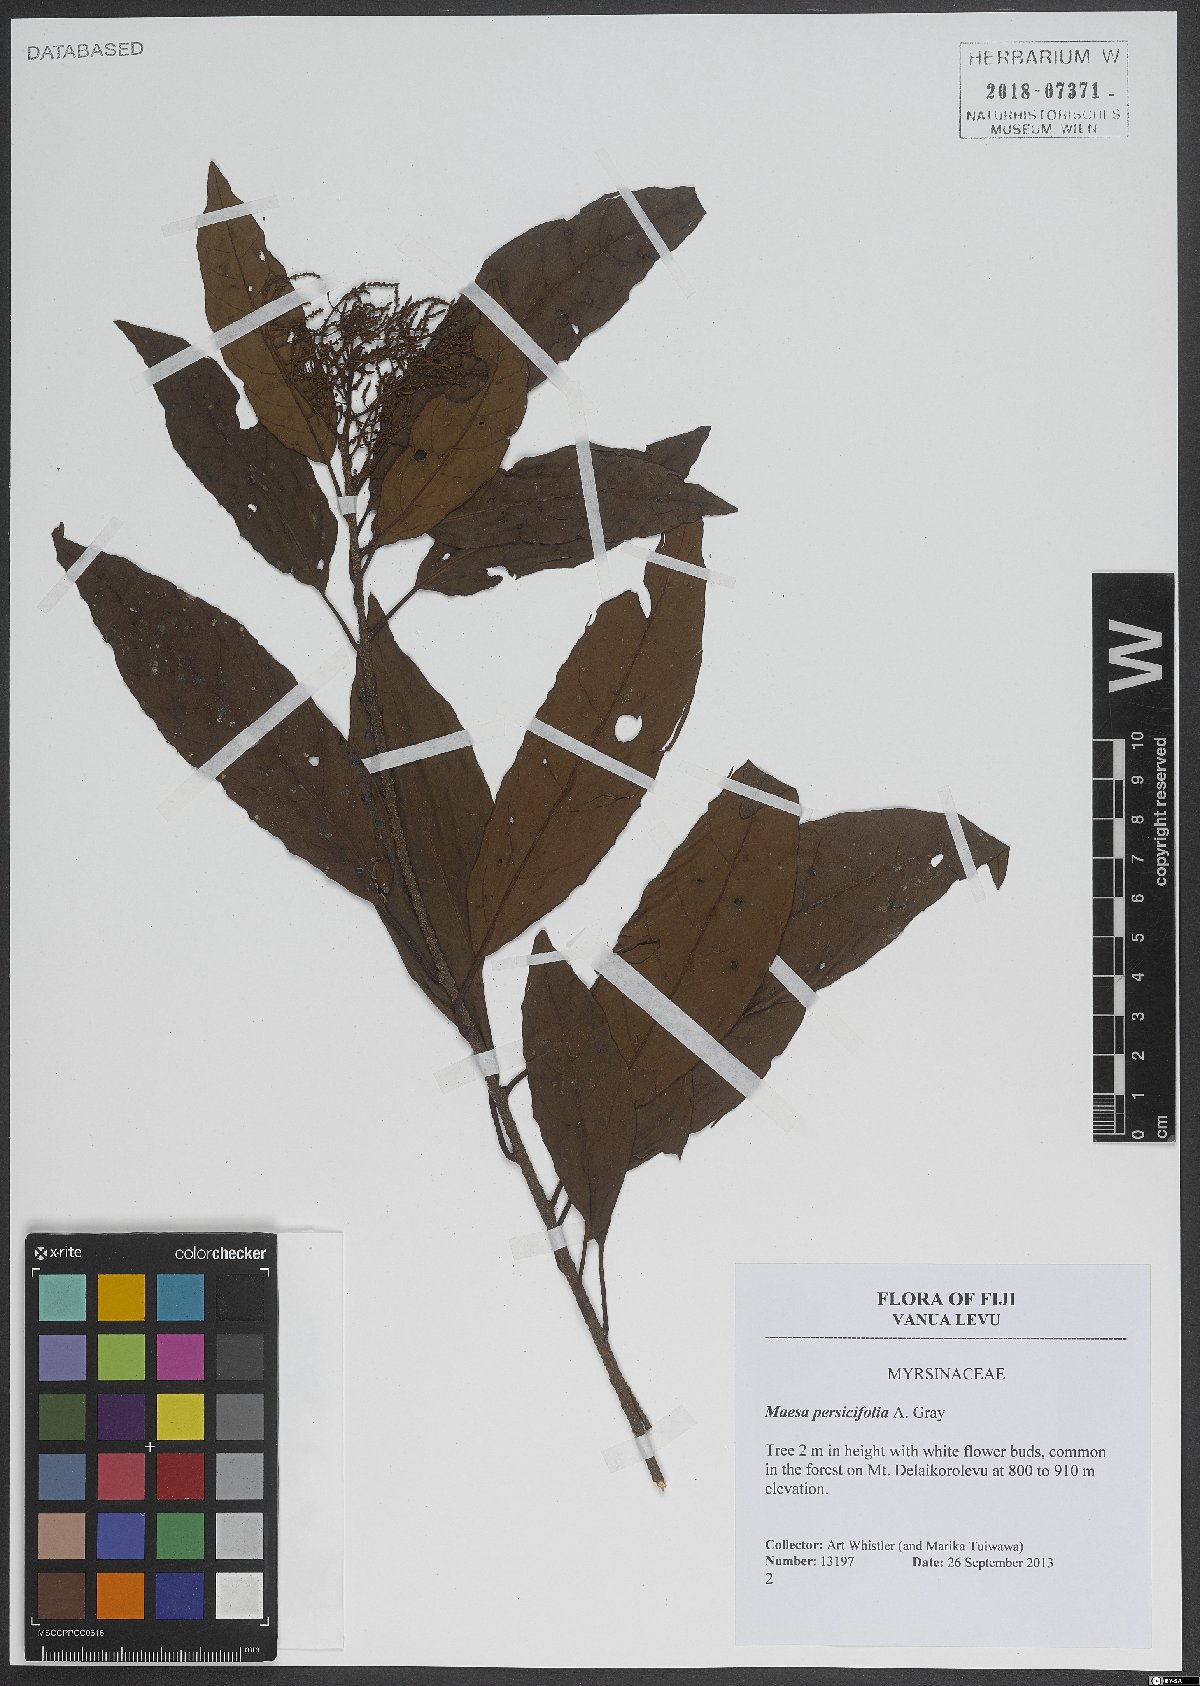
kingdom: Plantae
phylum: Tracheophyta
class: Magnoliopsida
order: Ericales
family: Primulaceae
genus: Maesa
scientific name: Maesa persicifolia
